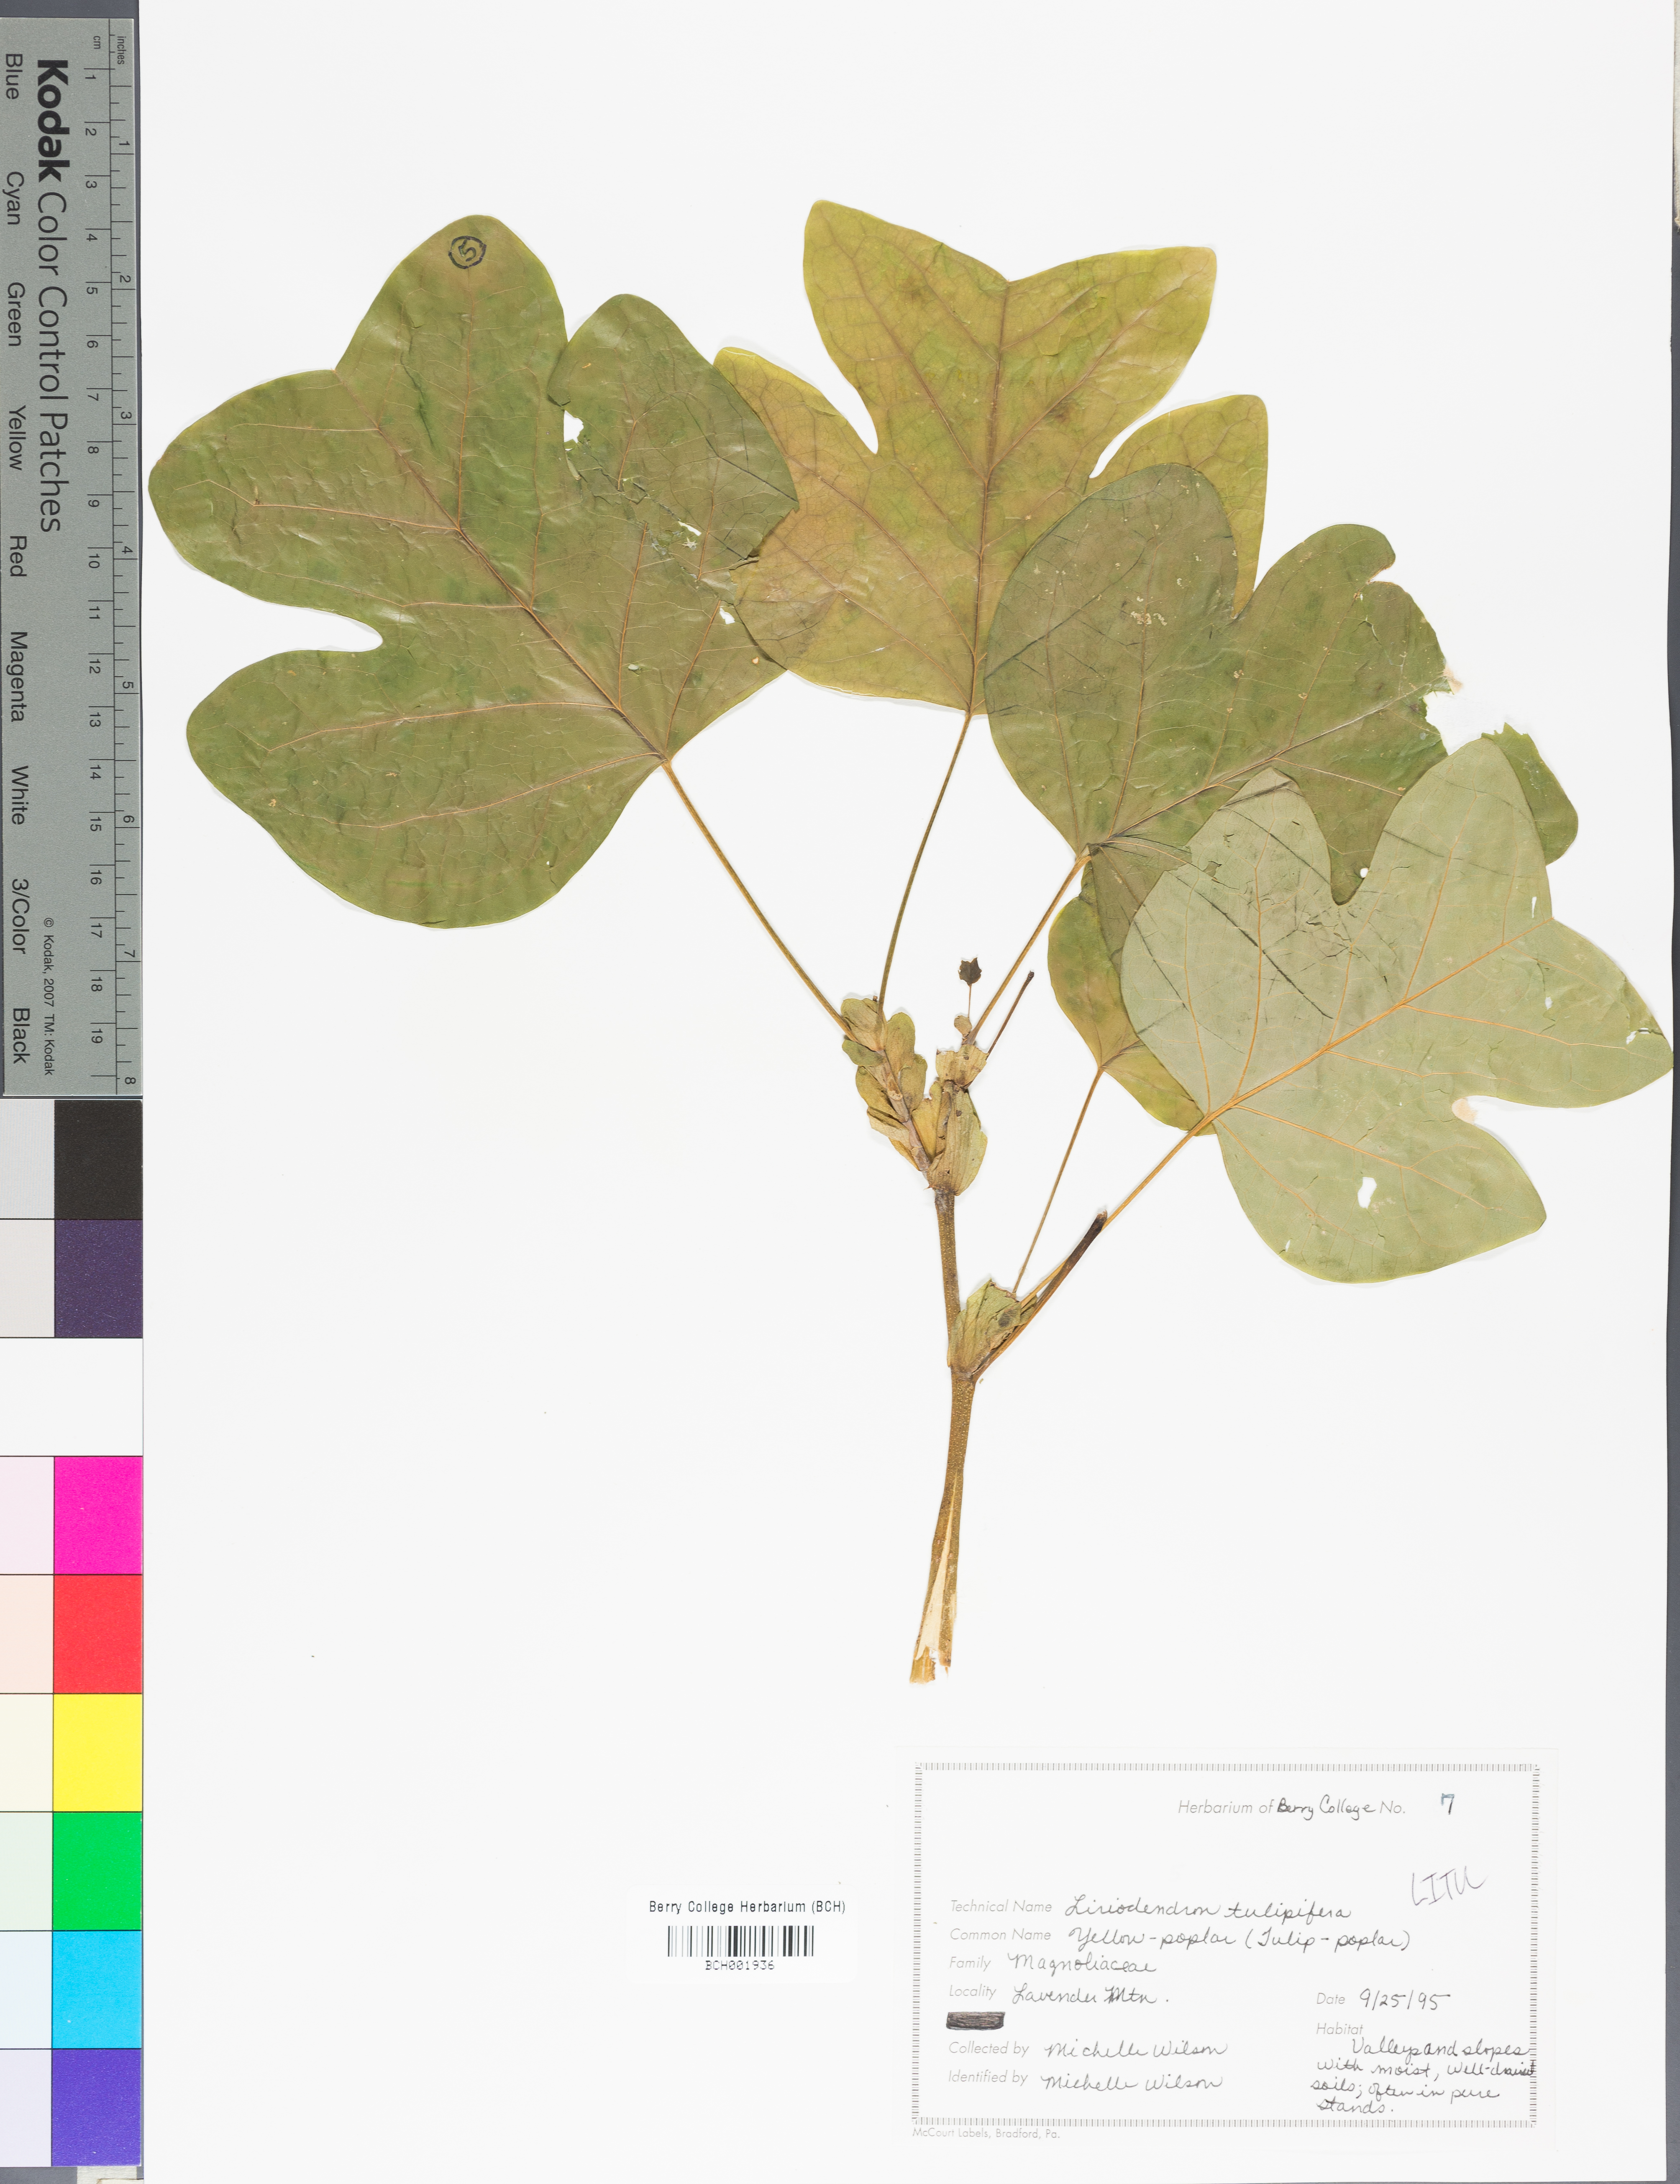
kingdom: Plantae
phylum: Tracheophyta
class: Magnoliopsida
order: Magnoliales
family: Magnoliaceae
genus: Liriodendron
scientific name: Liriodendron tulipifera
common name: Tulip tree
